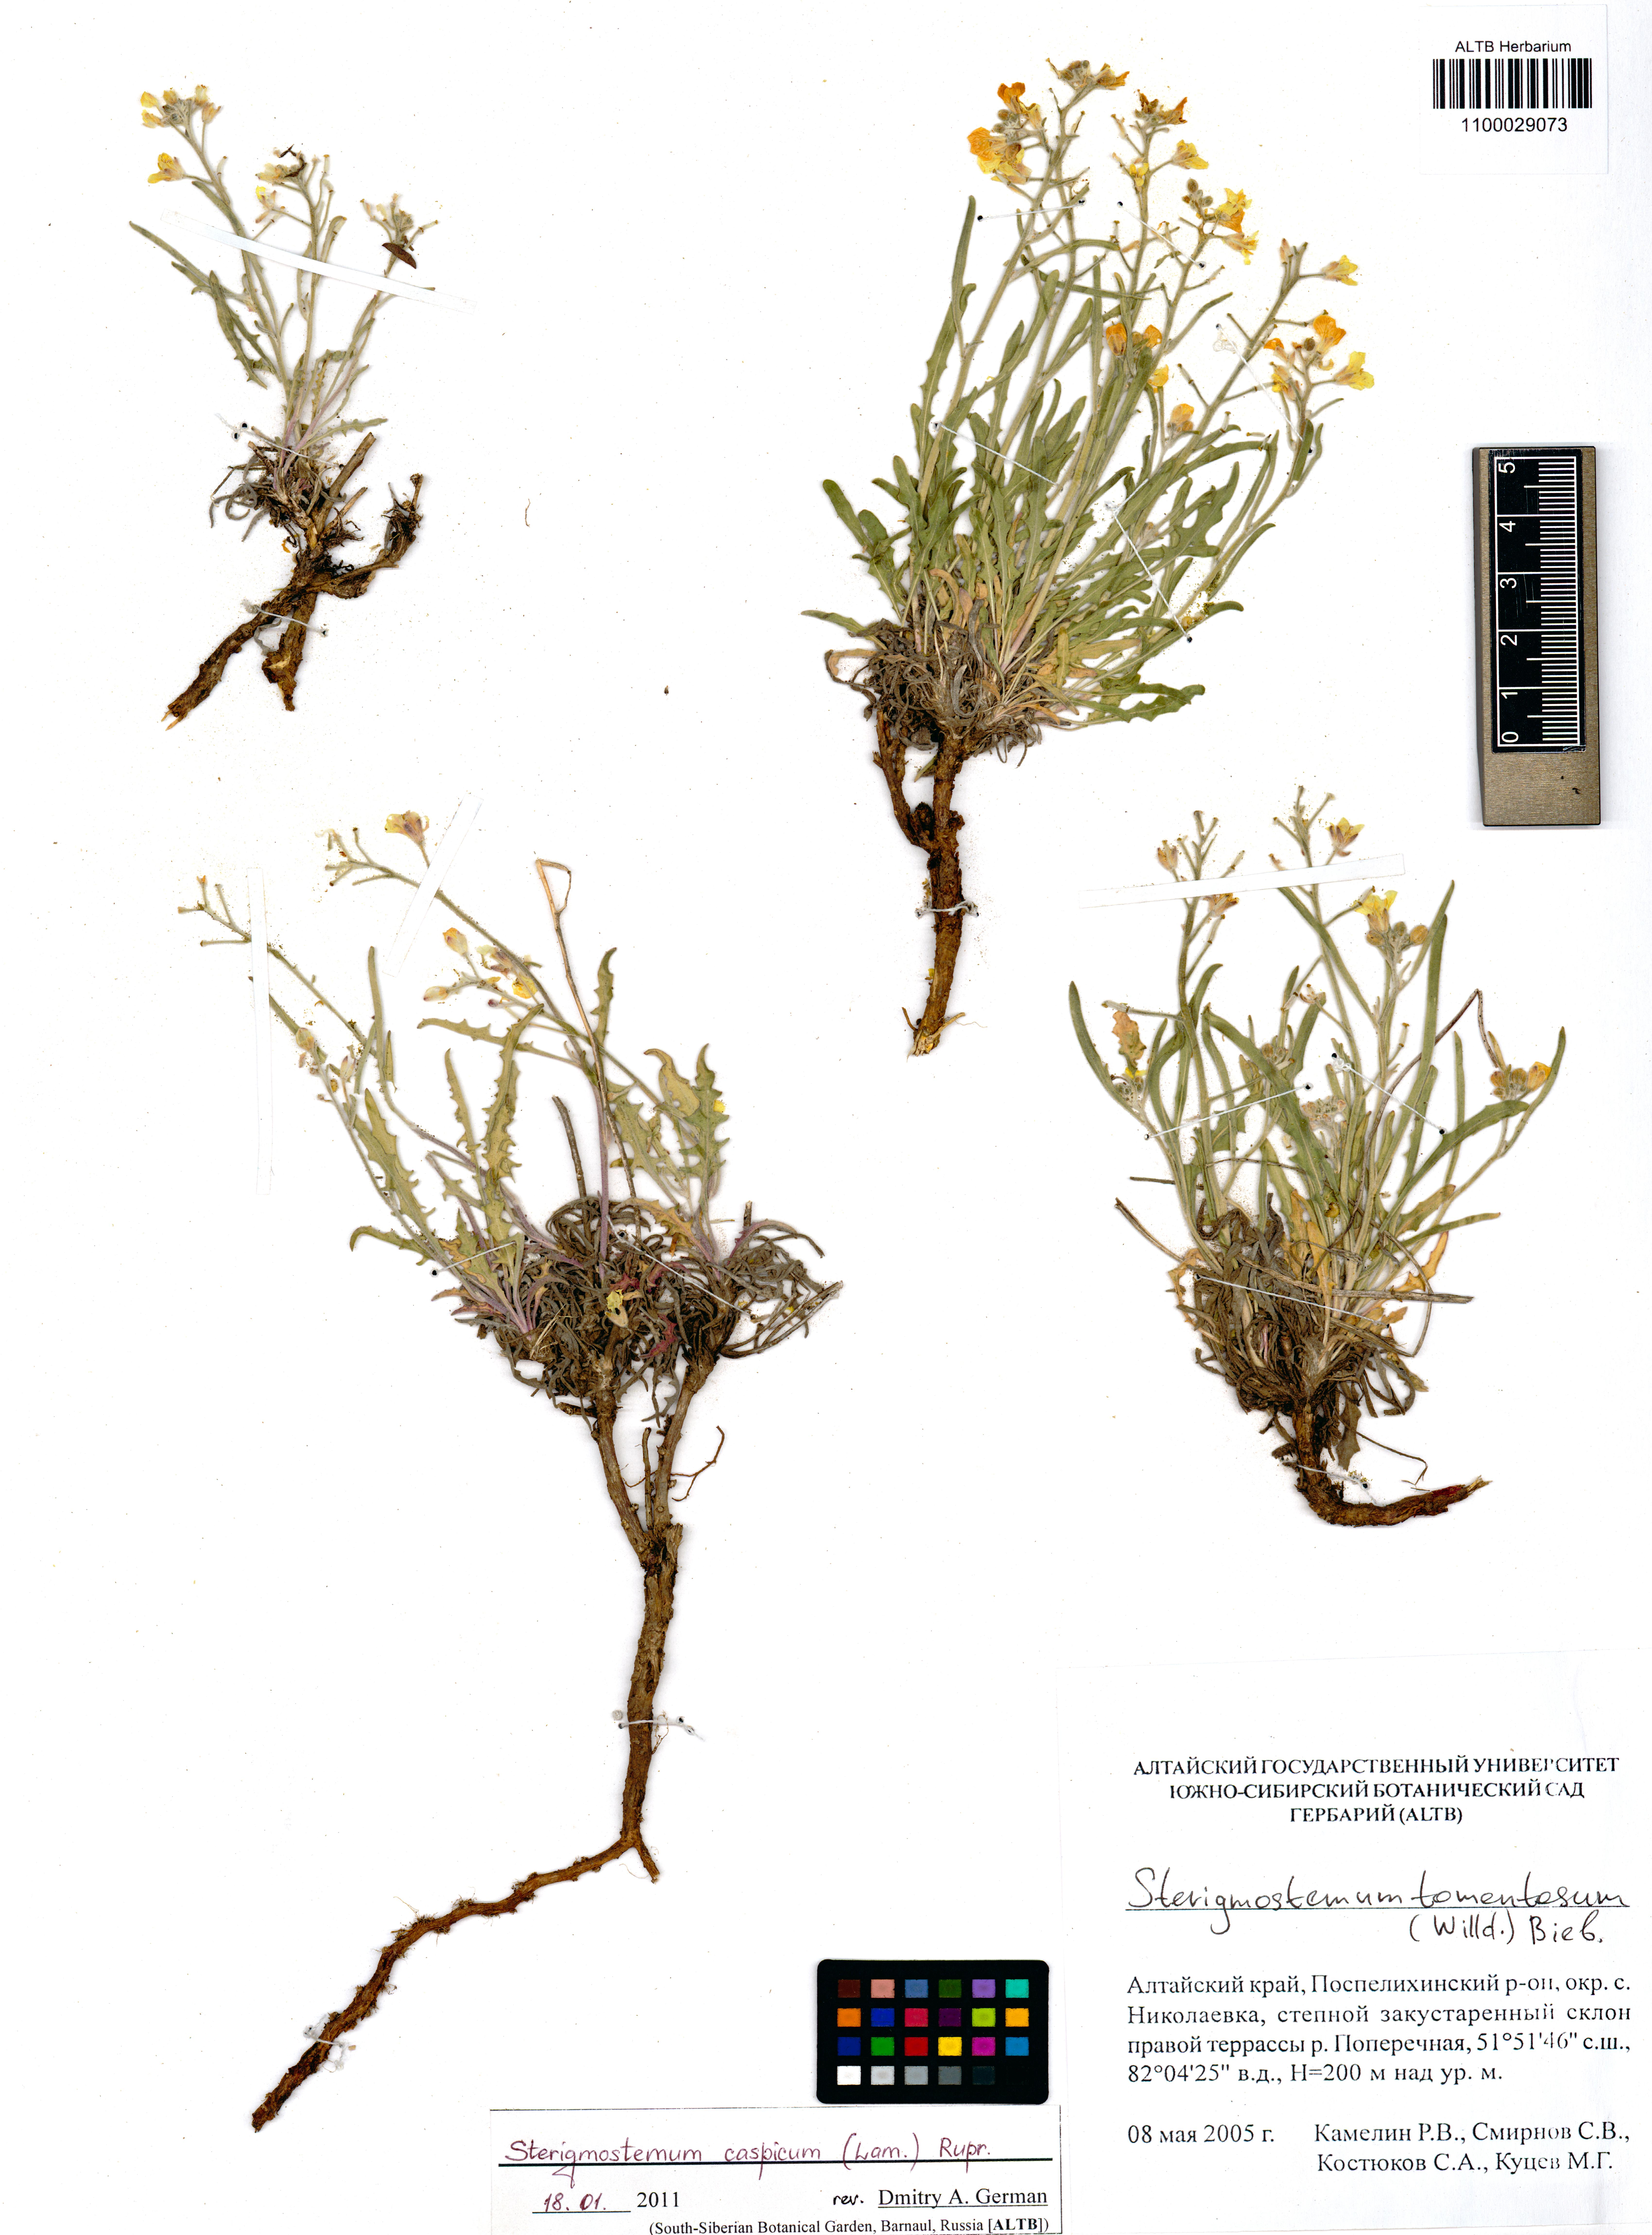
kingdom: Plantae
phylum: Tracheophyta
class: Magnoliopsida
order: Brassicales
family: Brassicaceae
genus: Sterigmostemum
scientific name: Sterigmostemum caspicum
